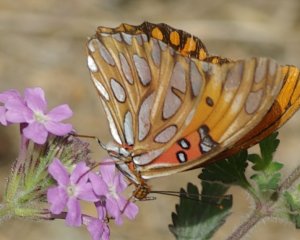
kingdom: Animalia
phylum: Arthropoda
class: Insecta
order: Lepidoptera
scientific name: Lepidoptera
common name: Butterflies
